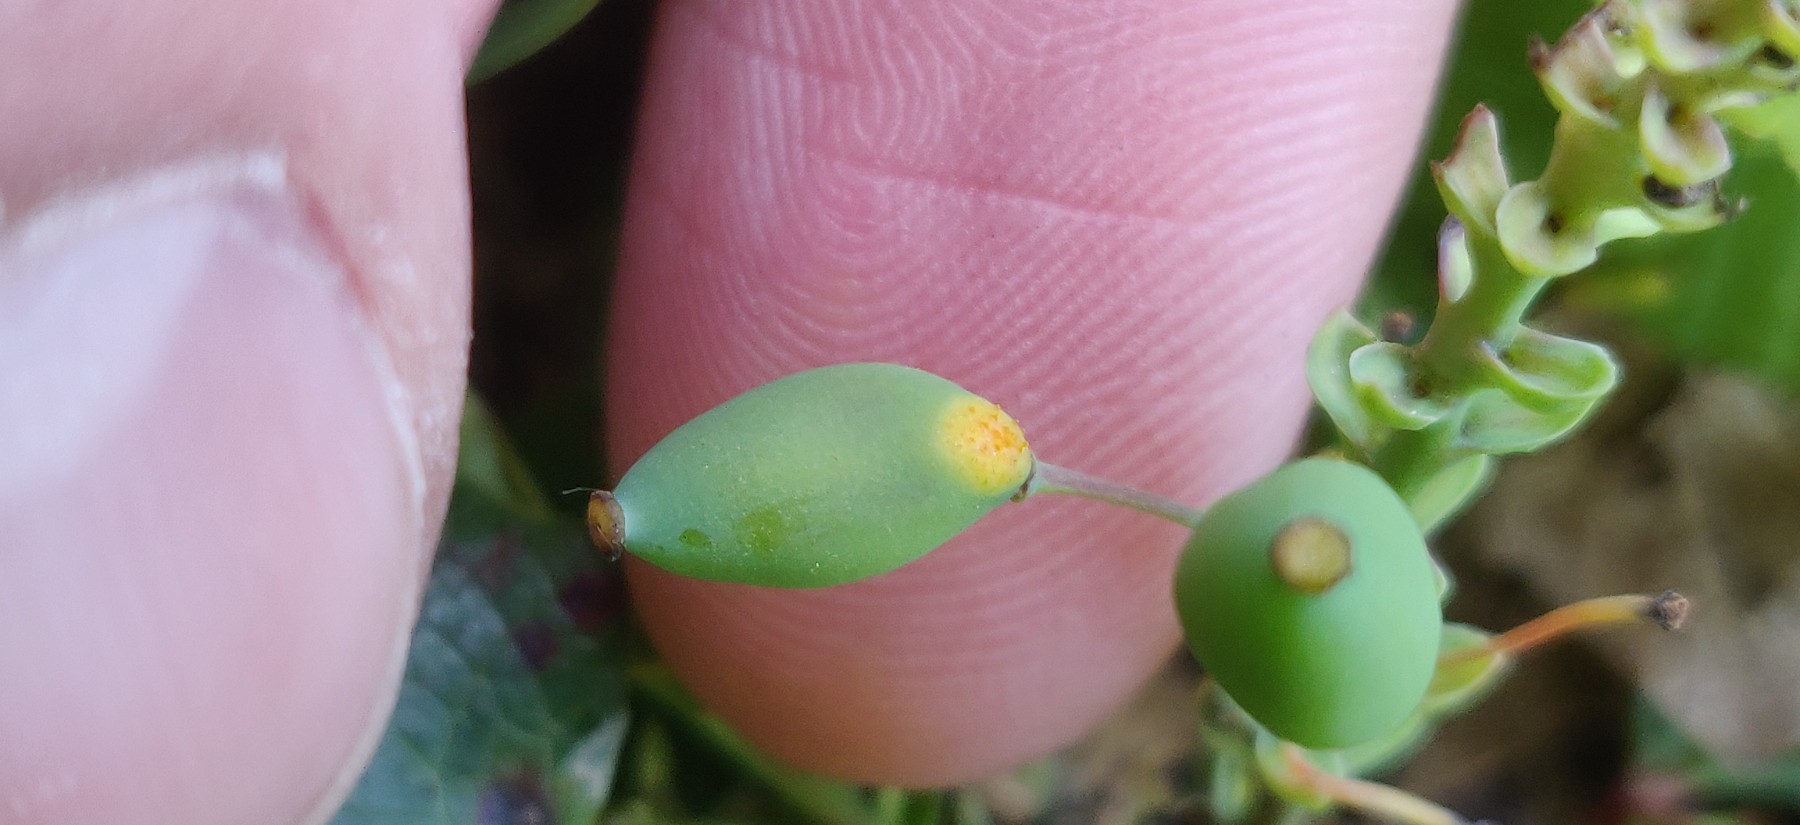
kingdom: Fungi
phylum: Basidiomycota
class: Pucciniomycetes
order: Pucciniales
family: Pucciniaceae
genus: Cumminsiella
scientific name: Cumminsiella mirabilissima
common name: mahonierust
